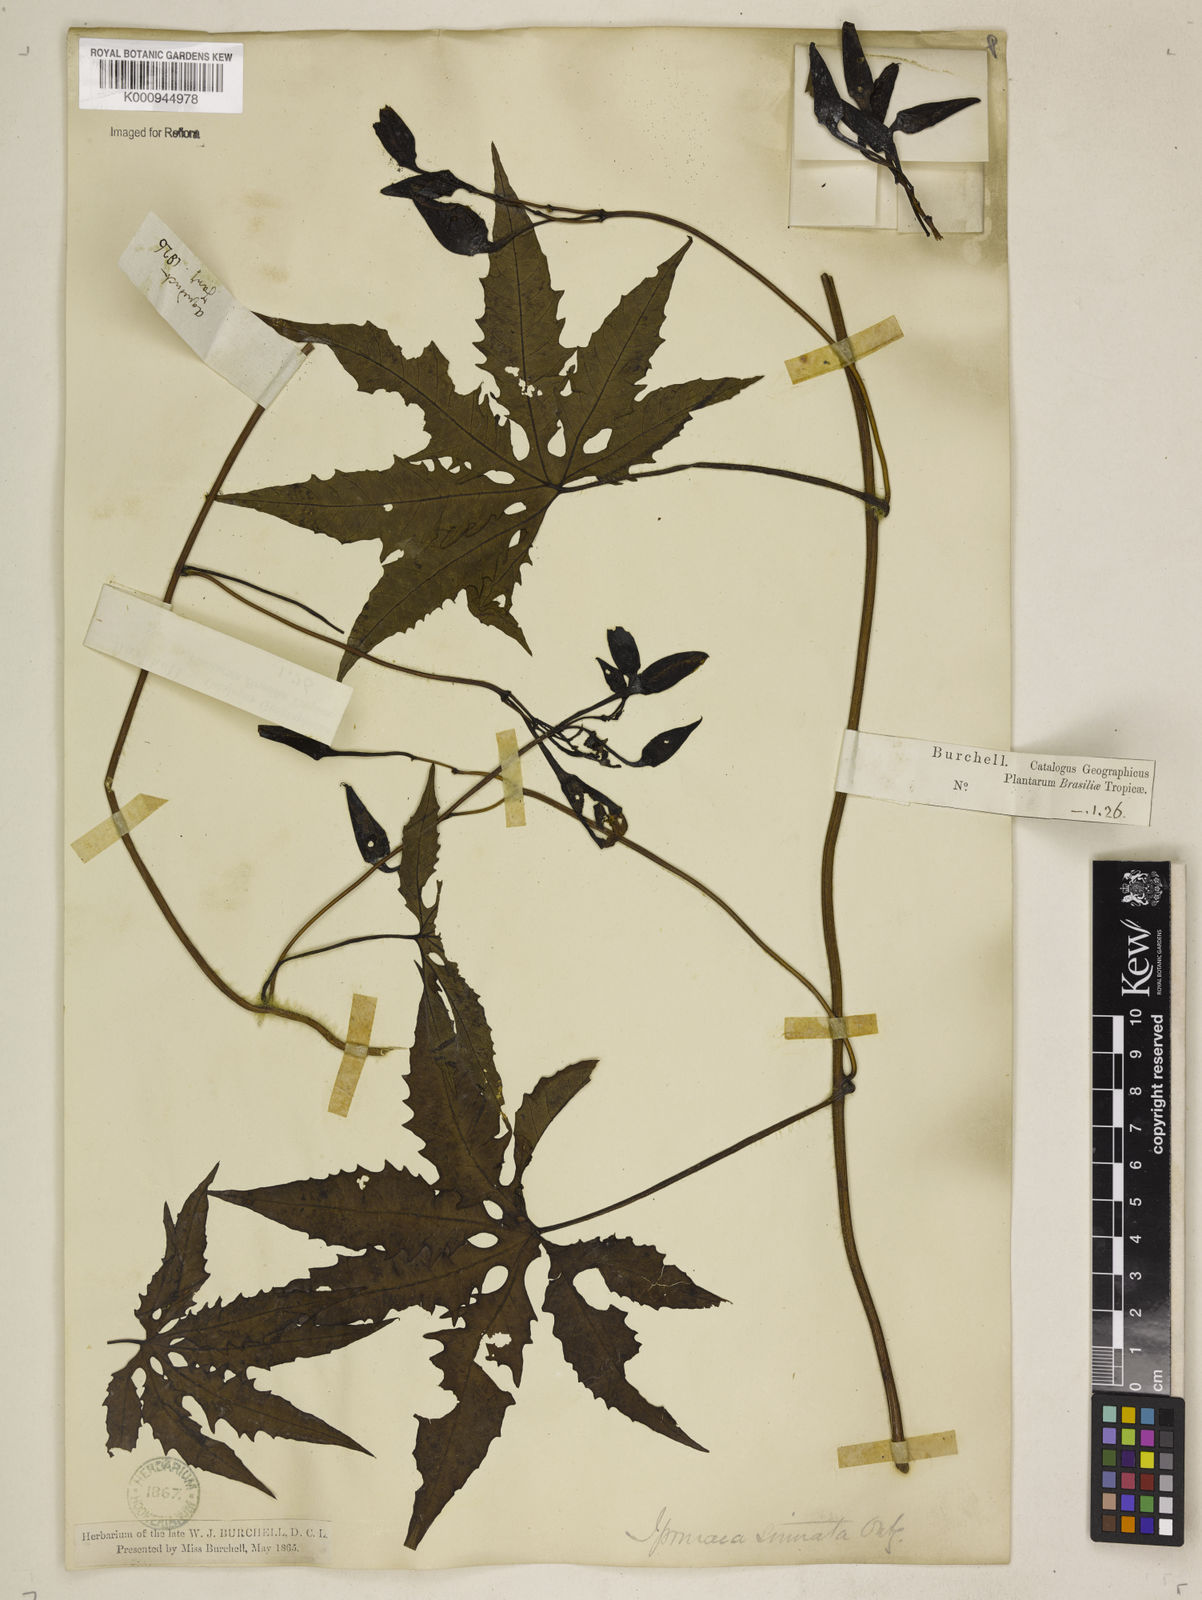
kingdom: Plantae
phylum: Tracheophyta
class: Magnoliopsida
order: Solanales
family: Convolvulaceae
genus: Distimake
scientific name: Distimake dissectus
